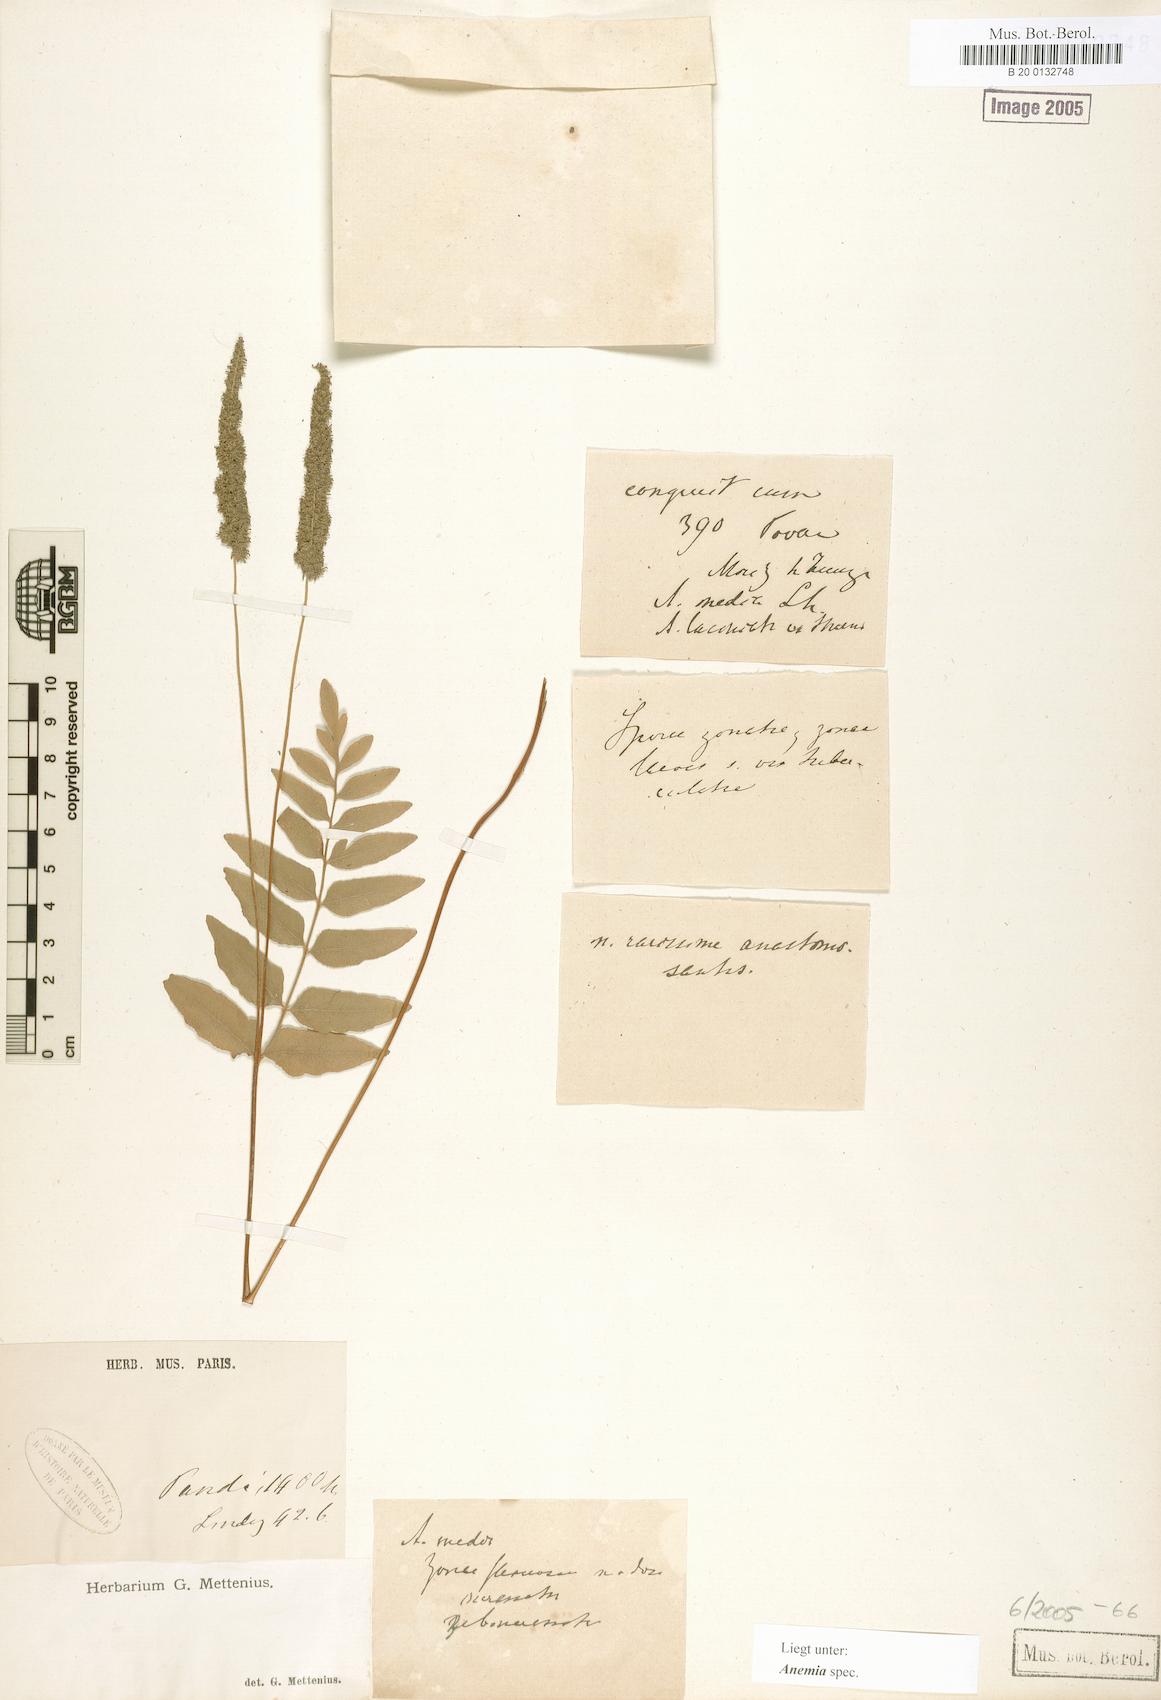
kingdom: Plantae
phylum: Tracheophyta
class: Polypodiopsida
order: Schizaeales
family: Anemiaceae
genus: Anemia
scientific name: Anemia
